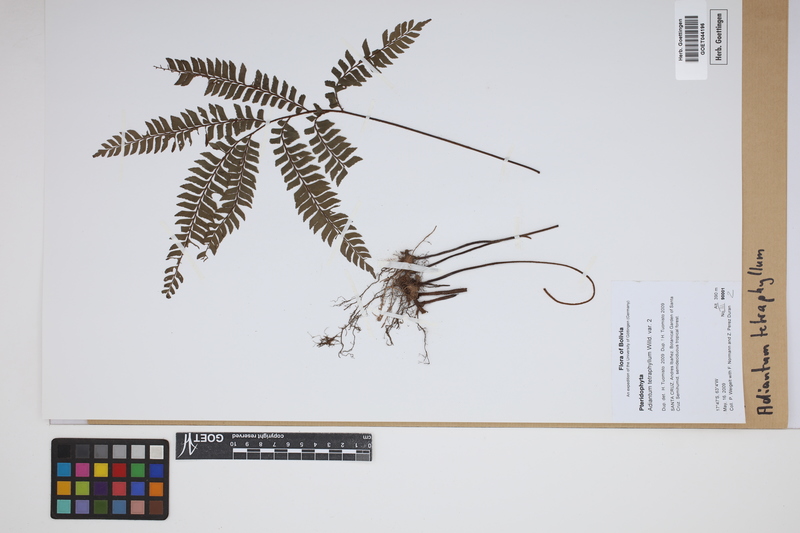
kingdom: Plantae
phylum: Tracheophyta
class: Polypodiopsida
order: Polypodiales
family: Pteridaceae
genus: Adiantum
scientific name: Adiantum tetraphyllum
